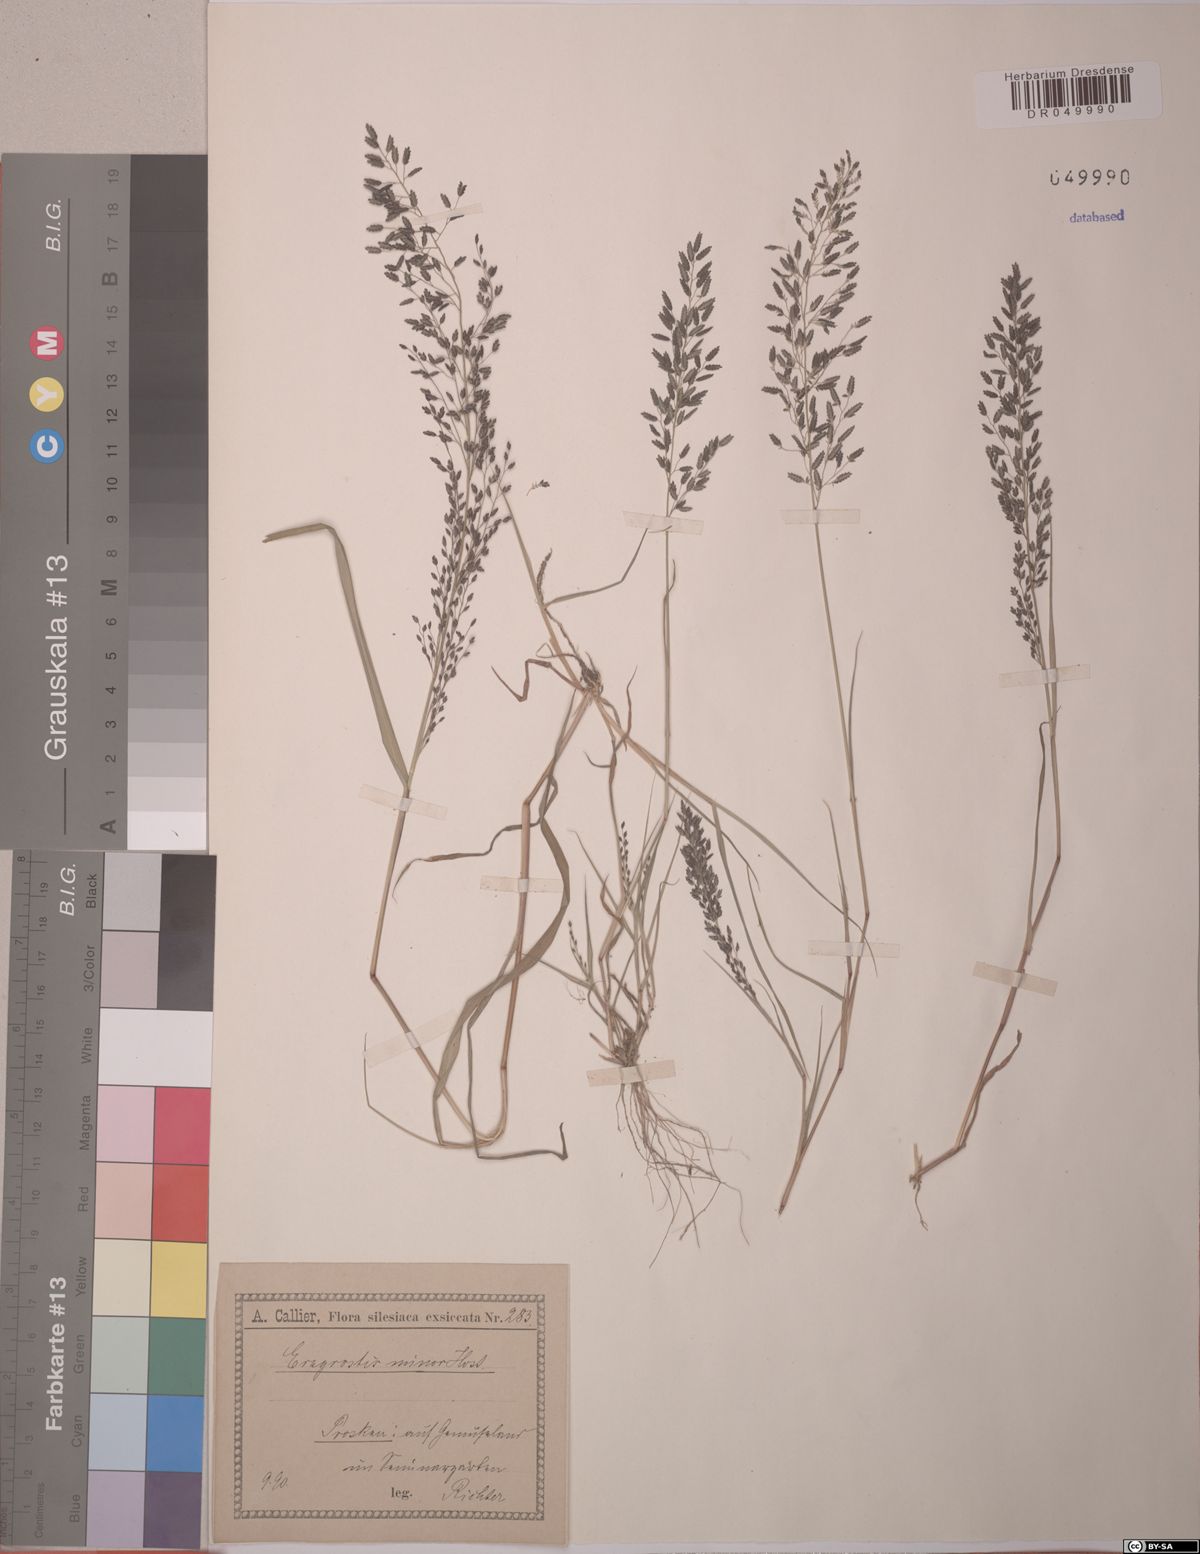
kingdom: Plantae
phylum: Tracheophyta
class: Liliopsida
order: Poales
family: Poaceae
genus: Eragrostis
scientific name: Eragrostis minor
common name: Small love-grass
